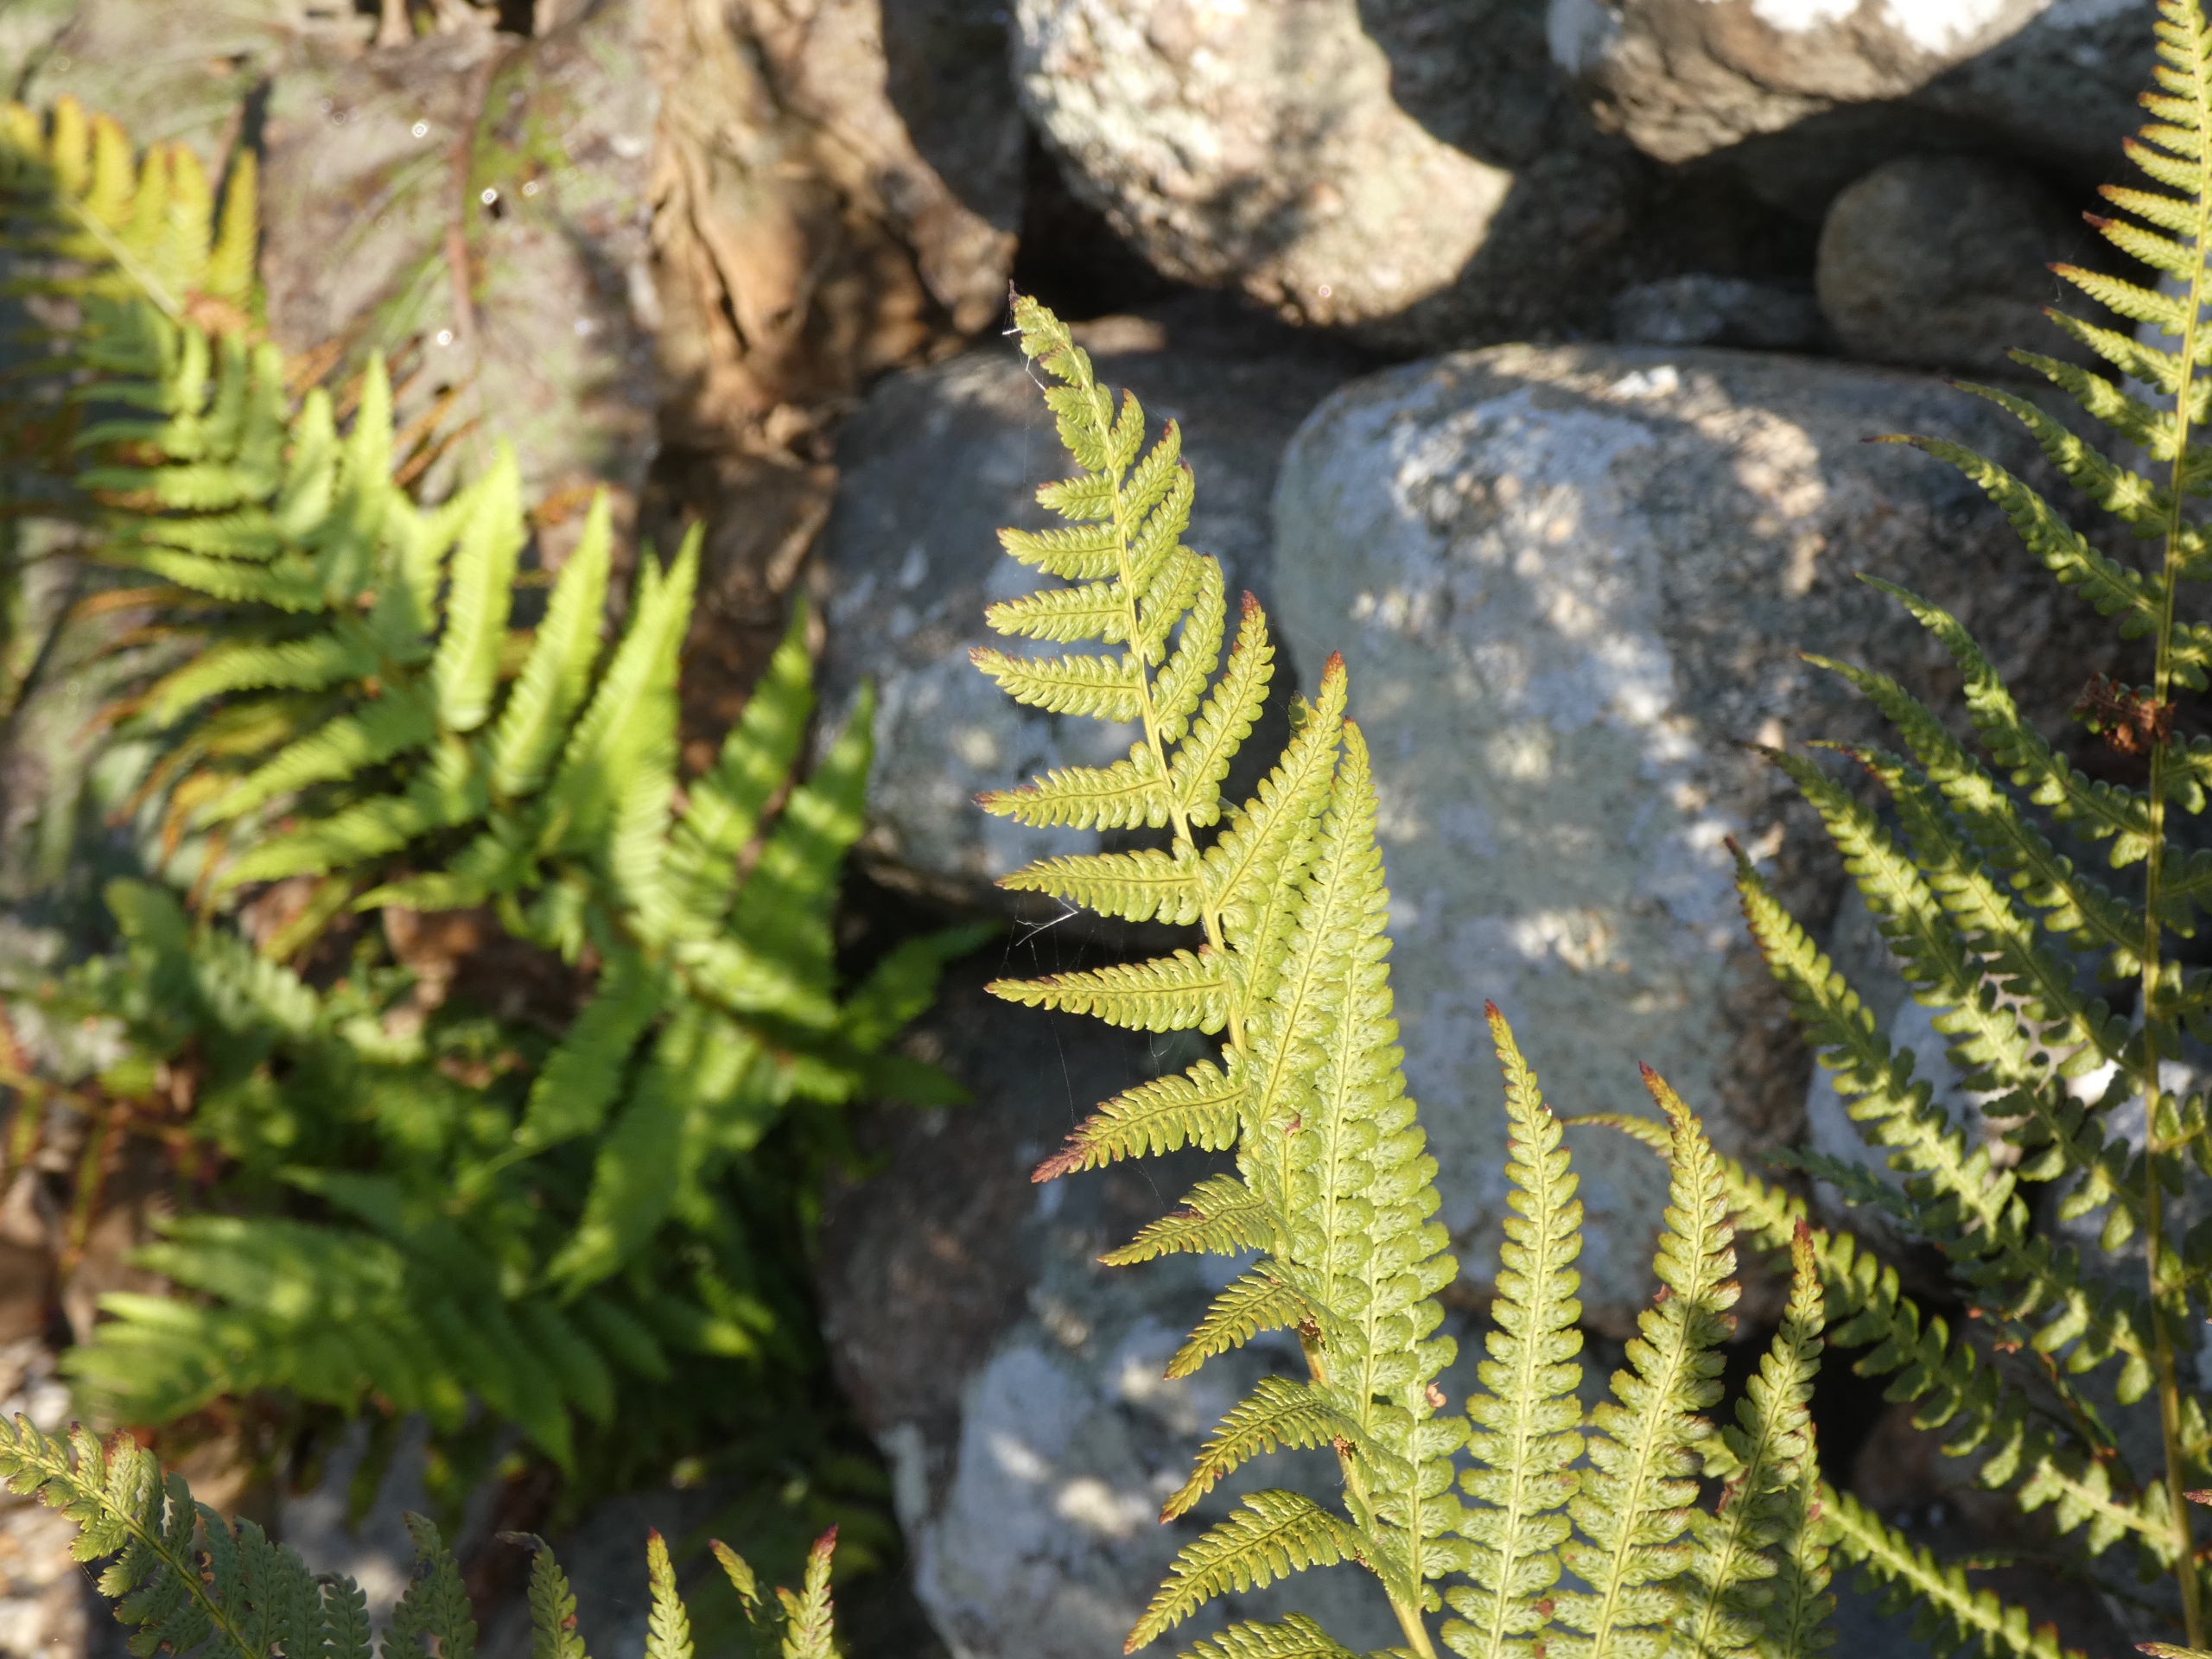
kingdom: Plantae
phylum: Tracheophyta
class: Polypodiopsida
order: Polypodiales
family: Dryopteridaceae
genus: Dryopteris
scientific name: Dryopteris filix-mas
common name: Almindelig mangeløv
